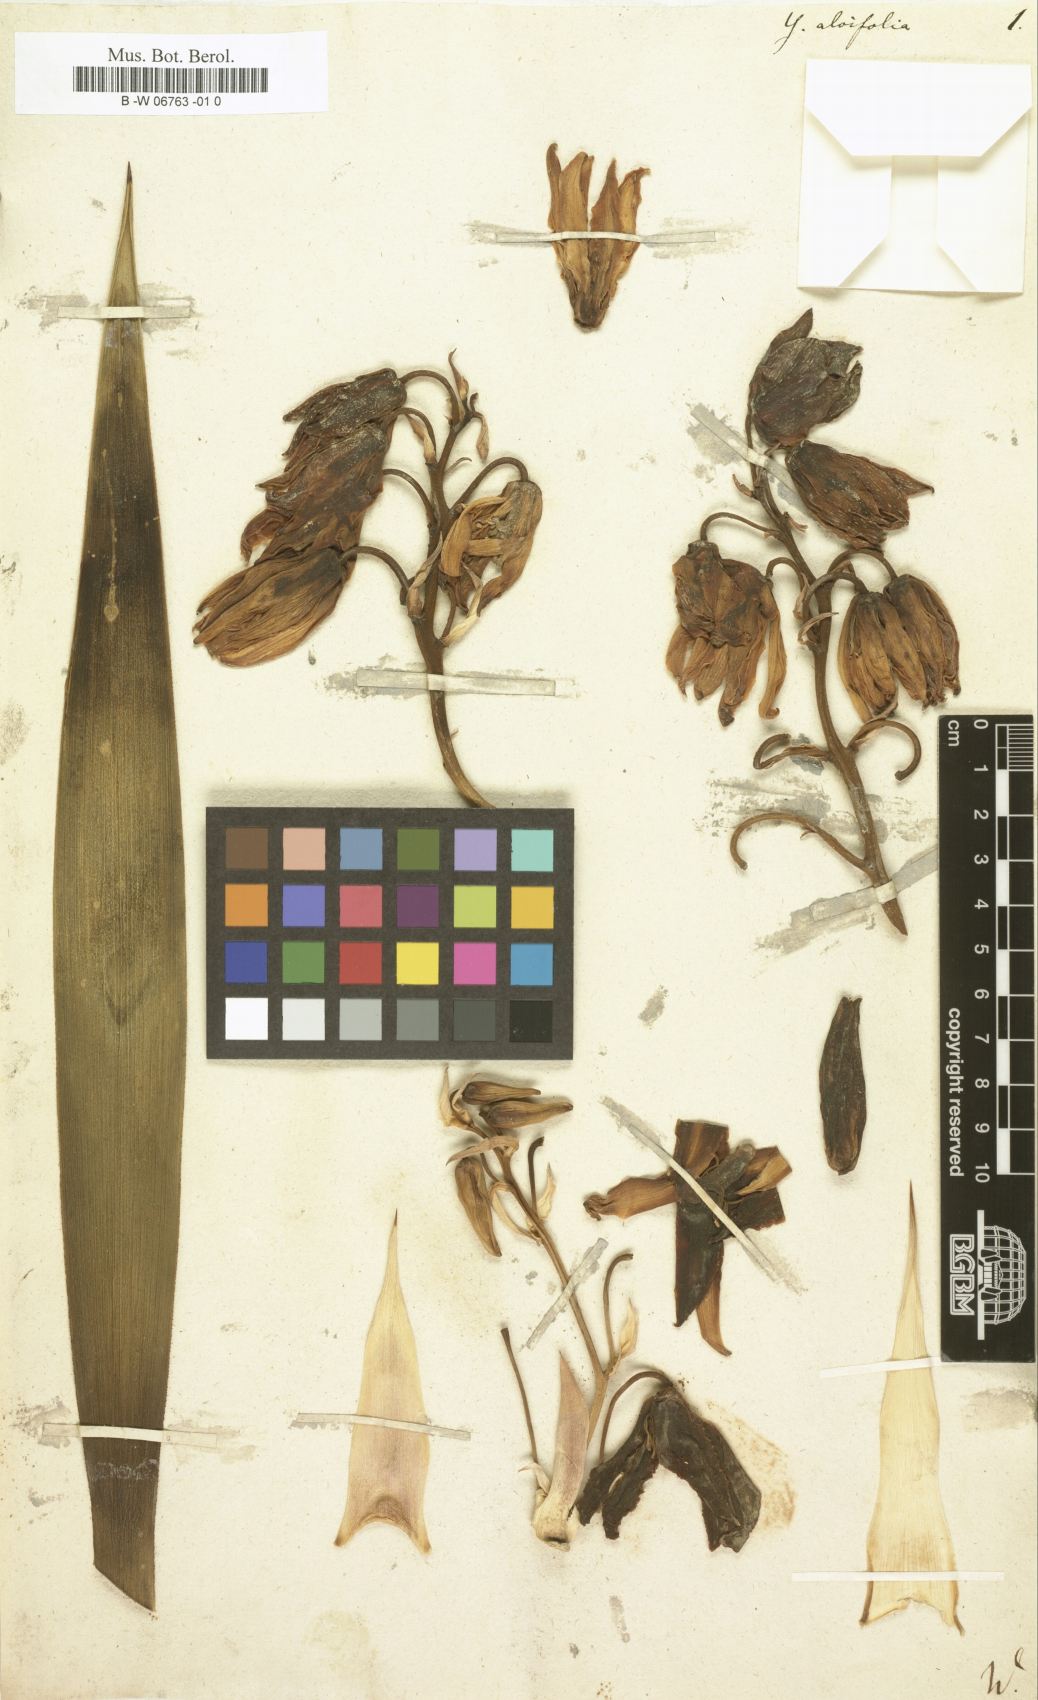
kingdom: Plantae
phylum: Tracheophyta
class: Liliopsida
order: Asparagales
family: Asparagaceae
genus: Yucca
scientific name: Yucca aloifolia
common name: Aloe yucca
